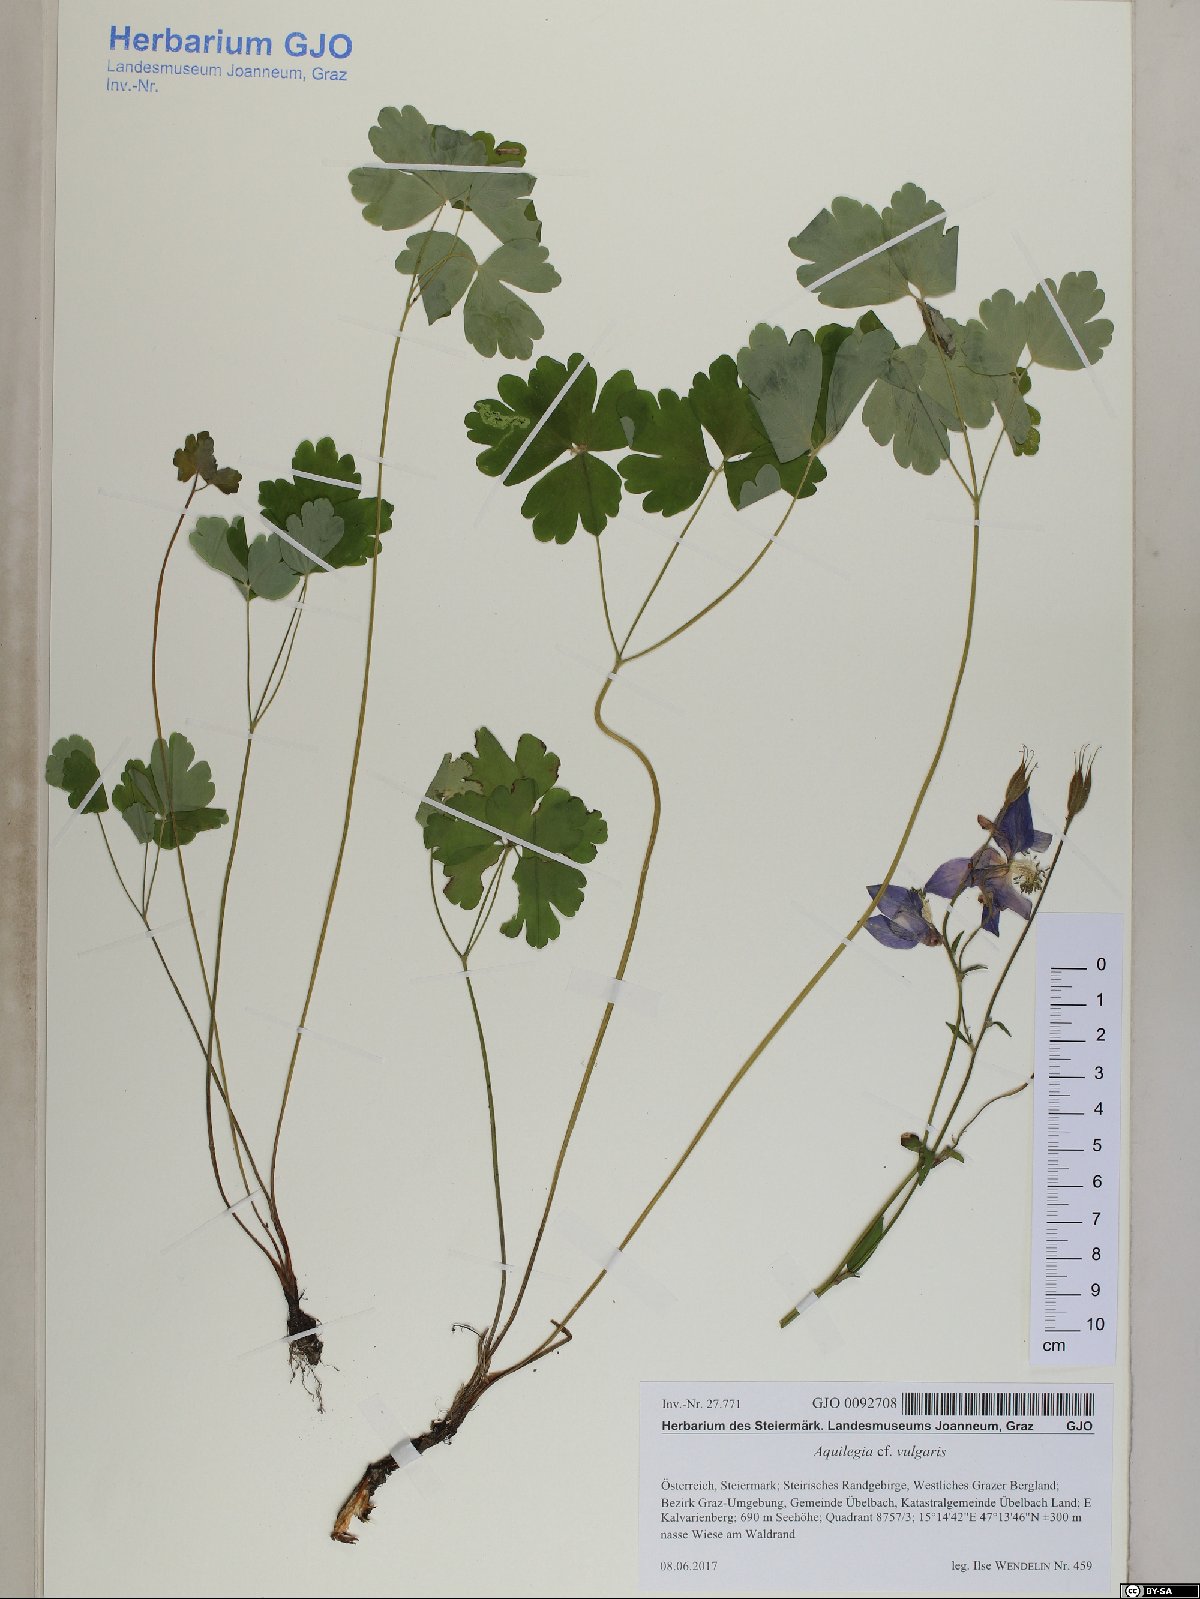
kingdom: Plantae
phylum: Tracheophyta
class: Magnoliopsida
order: Ranunculales
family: Ranunculaceae
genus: Aquilegia
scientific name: Aquilegia vulgaris
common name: Columbine
